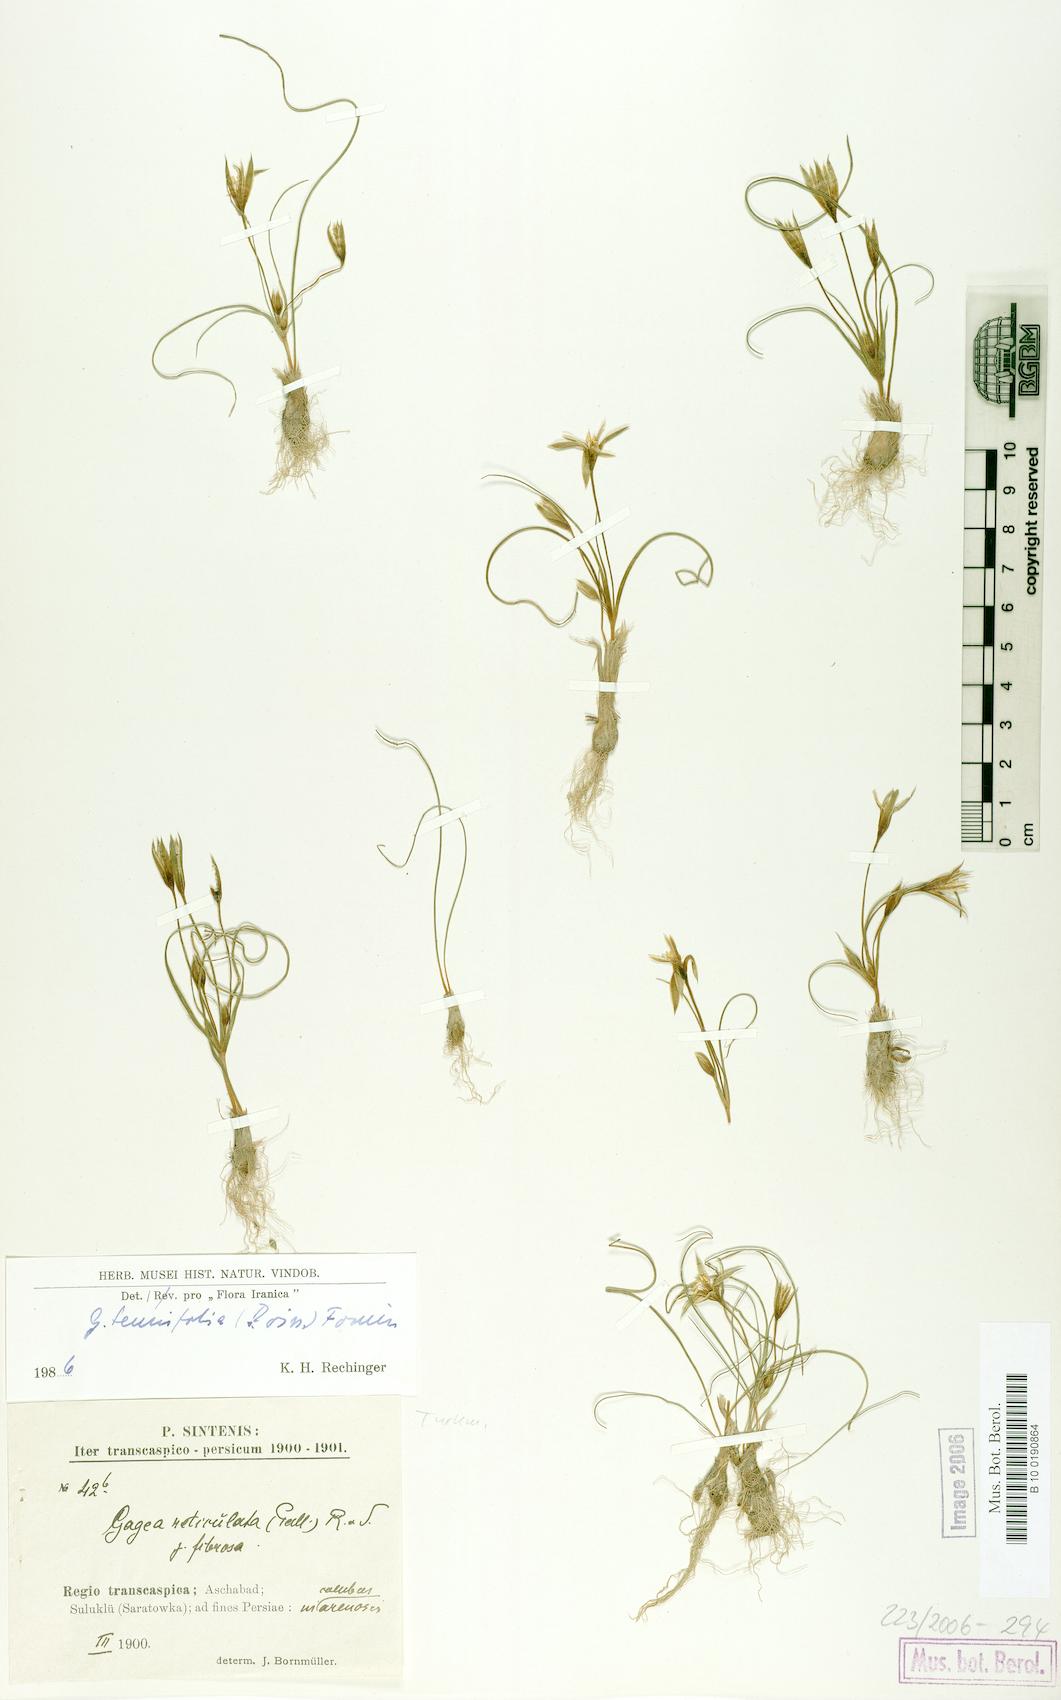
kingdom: Plantae
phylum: Tracheophyta
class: Liliopsida
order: Liliales
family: Liliaceae
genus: Gagea
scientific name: Gagea reticulata
